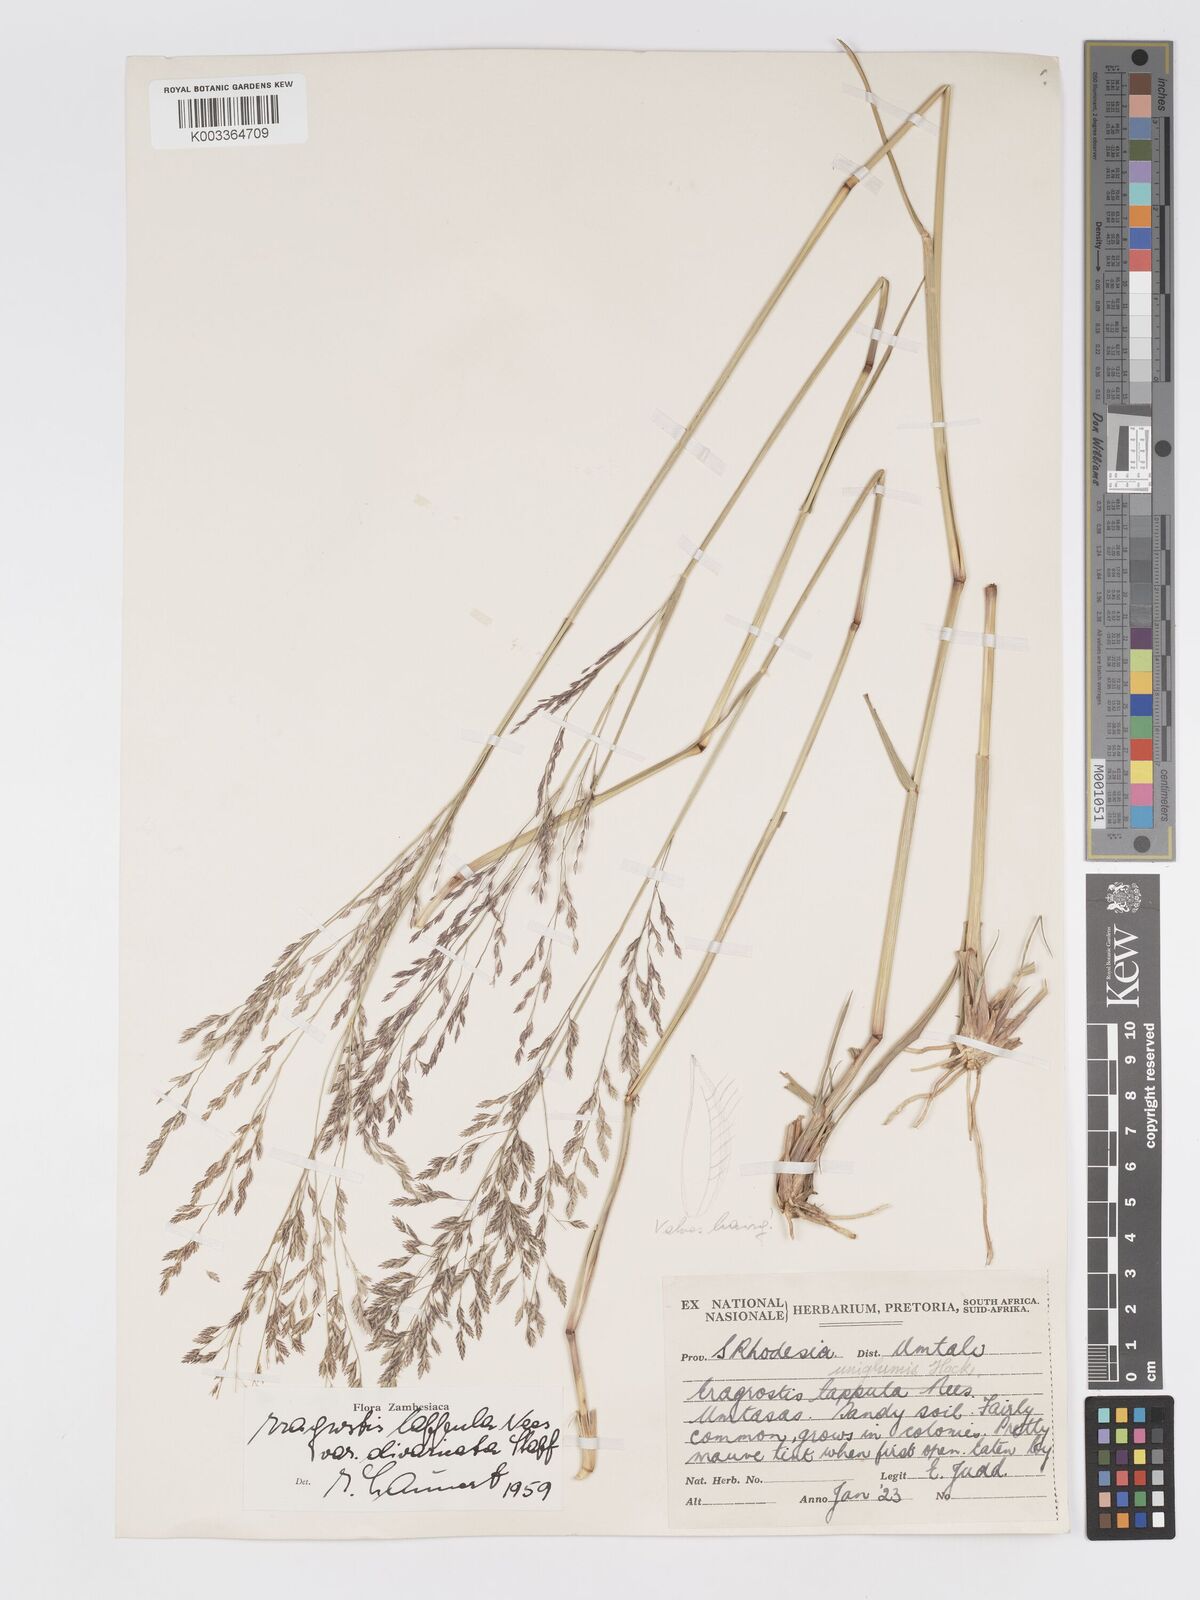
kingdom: Plantae
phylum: Tracheophyta
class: Liliopsida
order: Poales
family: Poaceae
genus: Eragrostis
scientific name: Eragrostis lappula
